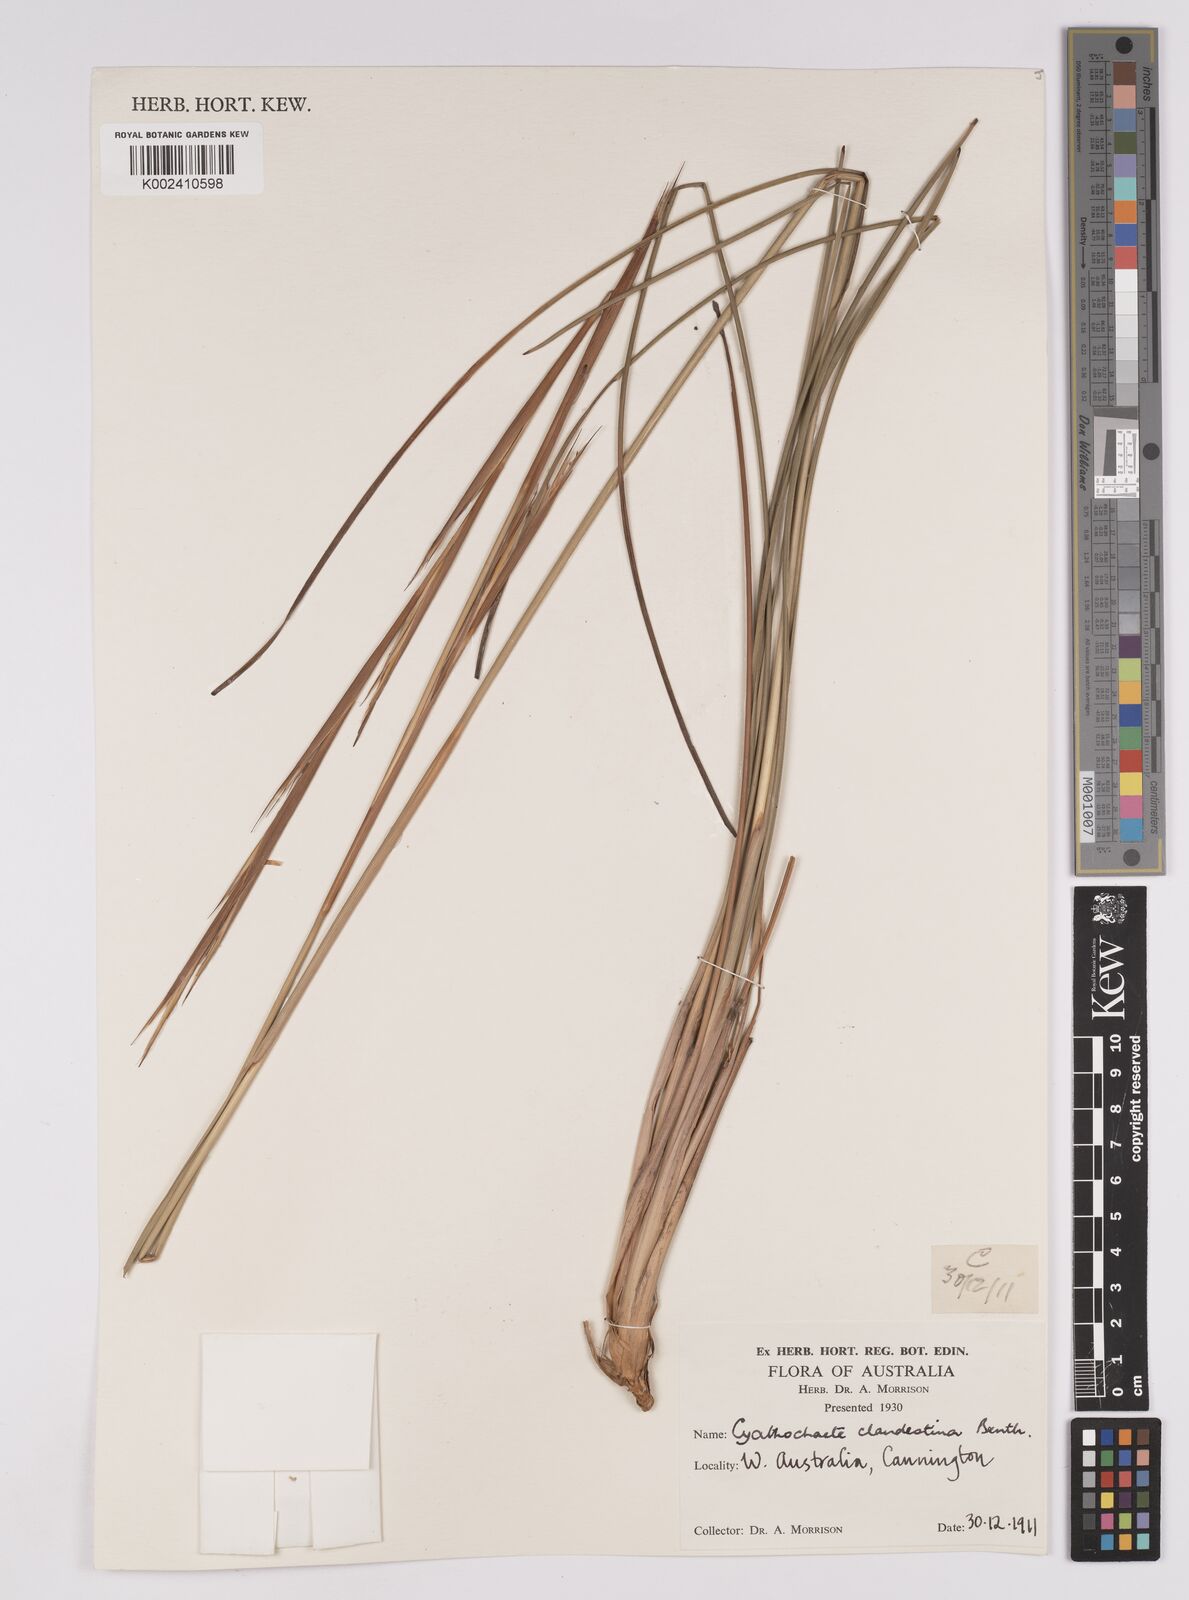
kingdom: Plantae
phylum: Tracheophyta
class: Liliopsida
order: Poales
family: Cyperaceae
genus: Cyathochaeta
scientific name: Cyathochaeta clandestina
